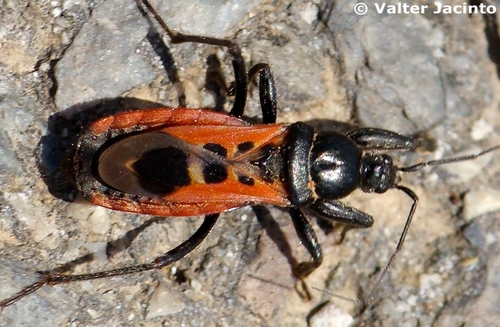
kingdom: Animalia
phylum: Arthropoda
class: Insecta
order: Hemiptera
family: Reduviidae
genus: Peirates
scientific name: Peirates stridulus
